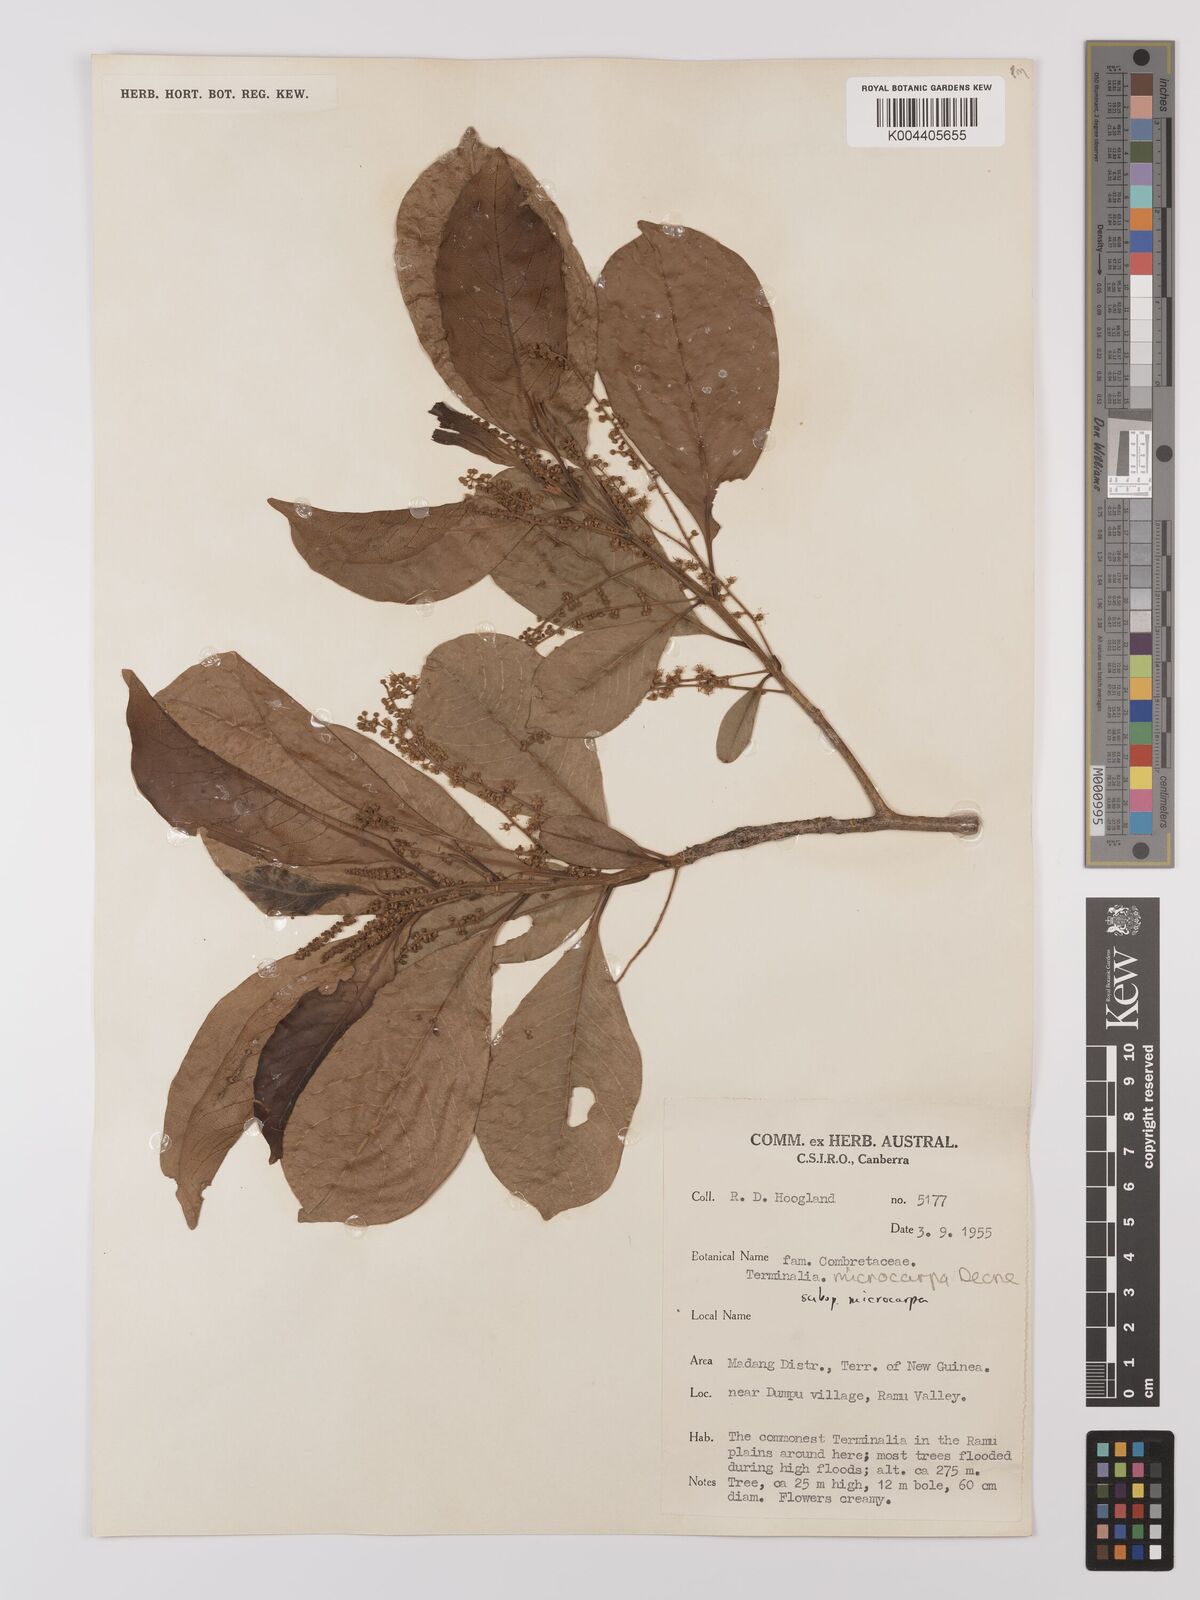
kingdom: Plantae
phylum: Tracheophyta
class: Magnoliopsida
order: Myrtales
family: Combretaceae
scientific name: Combretaceae
